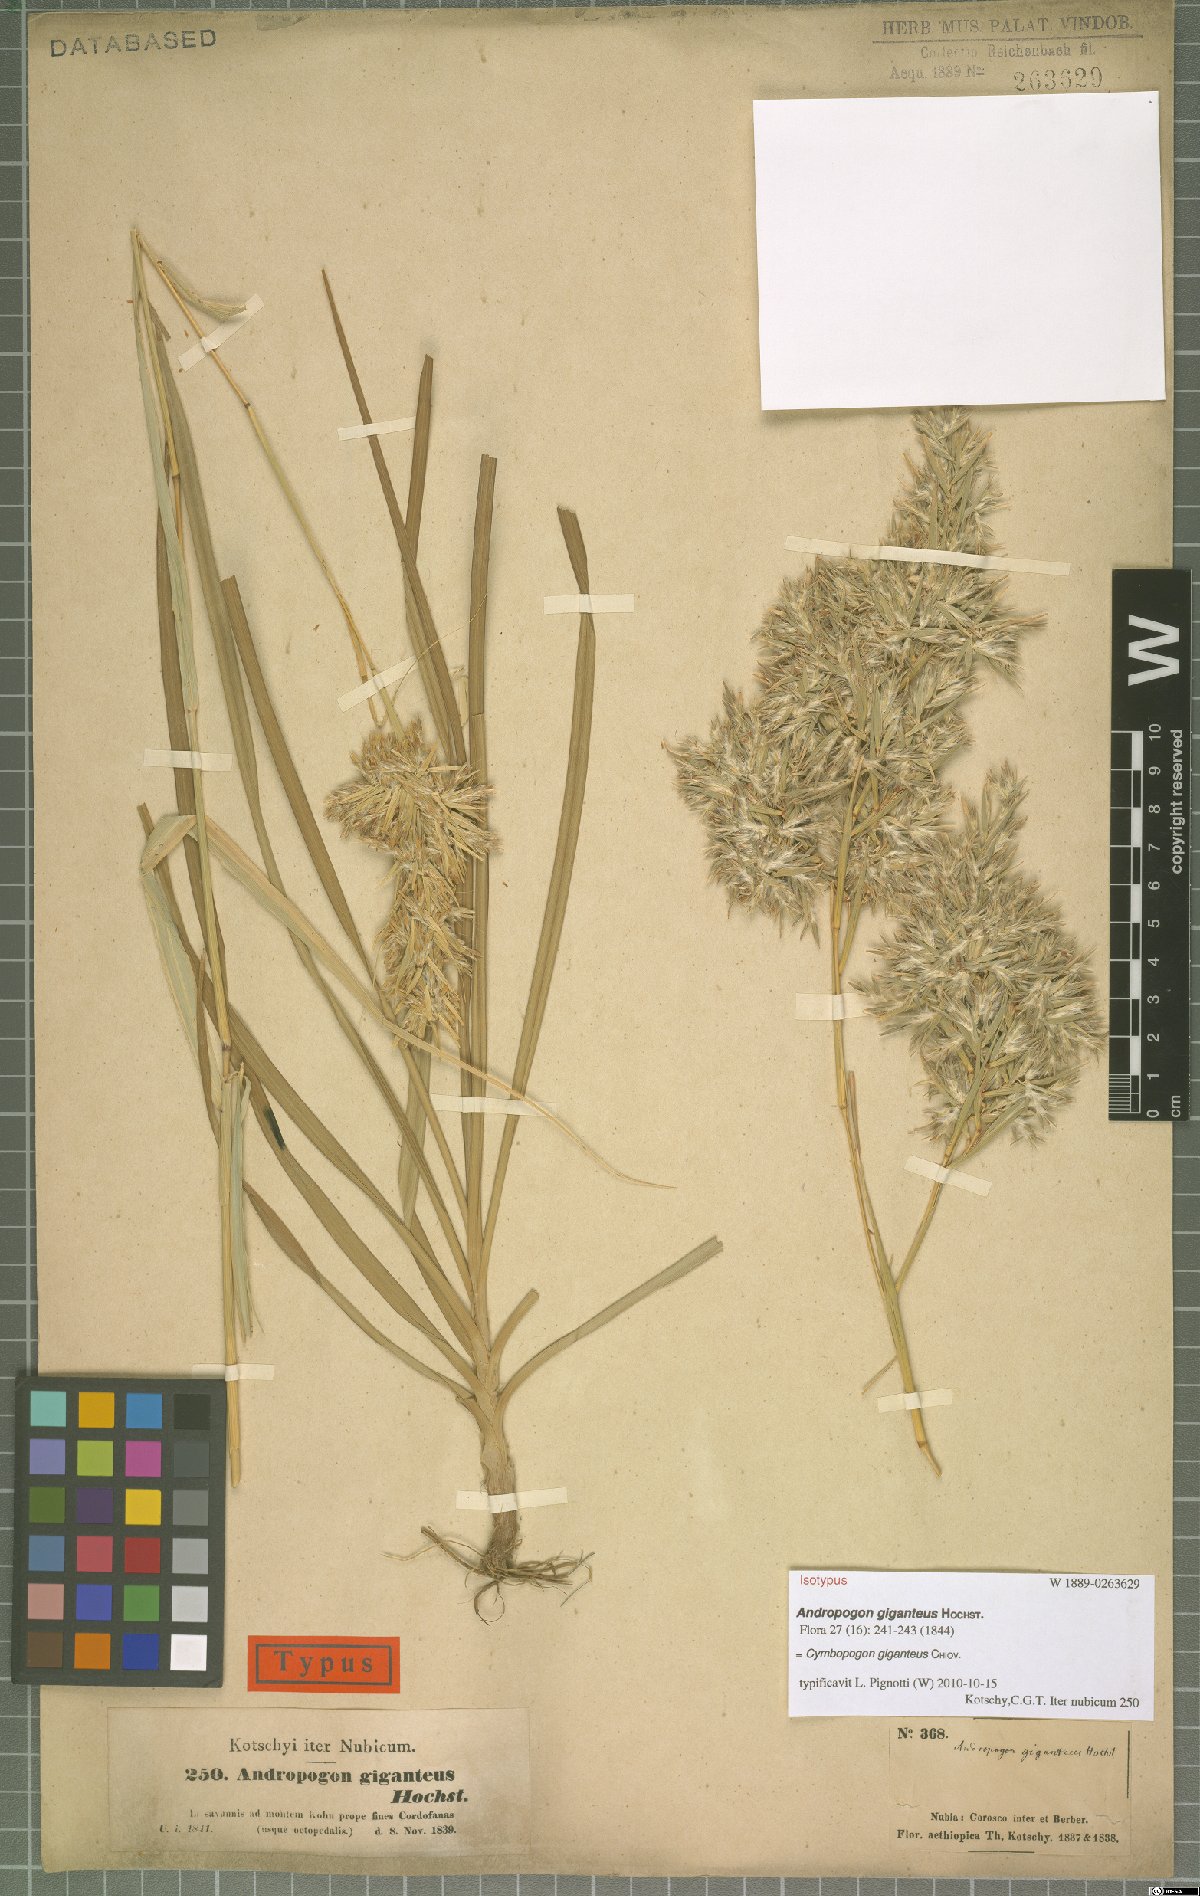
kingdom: Plantae
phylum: Tracheophyta
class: Liliopsida
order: Poales
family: Poaceae
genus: Cymbopogon
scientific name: Cymbopogon giganteus
